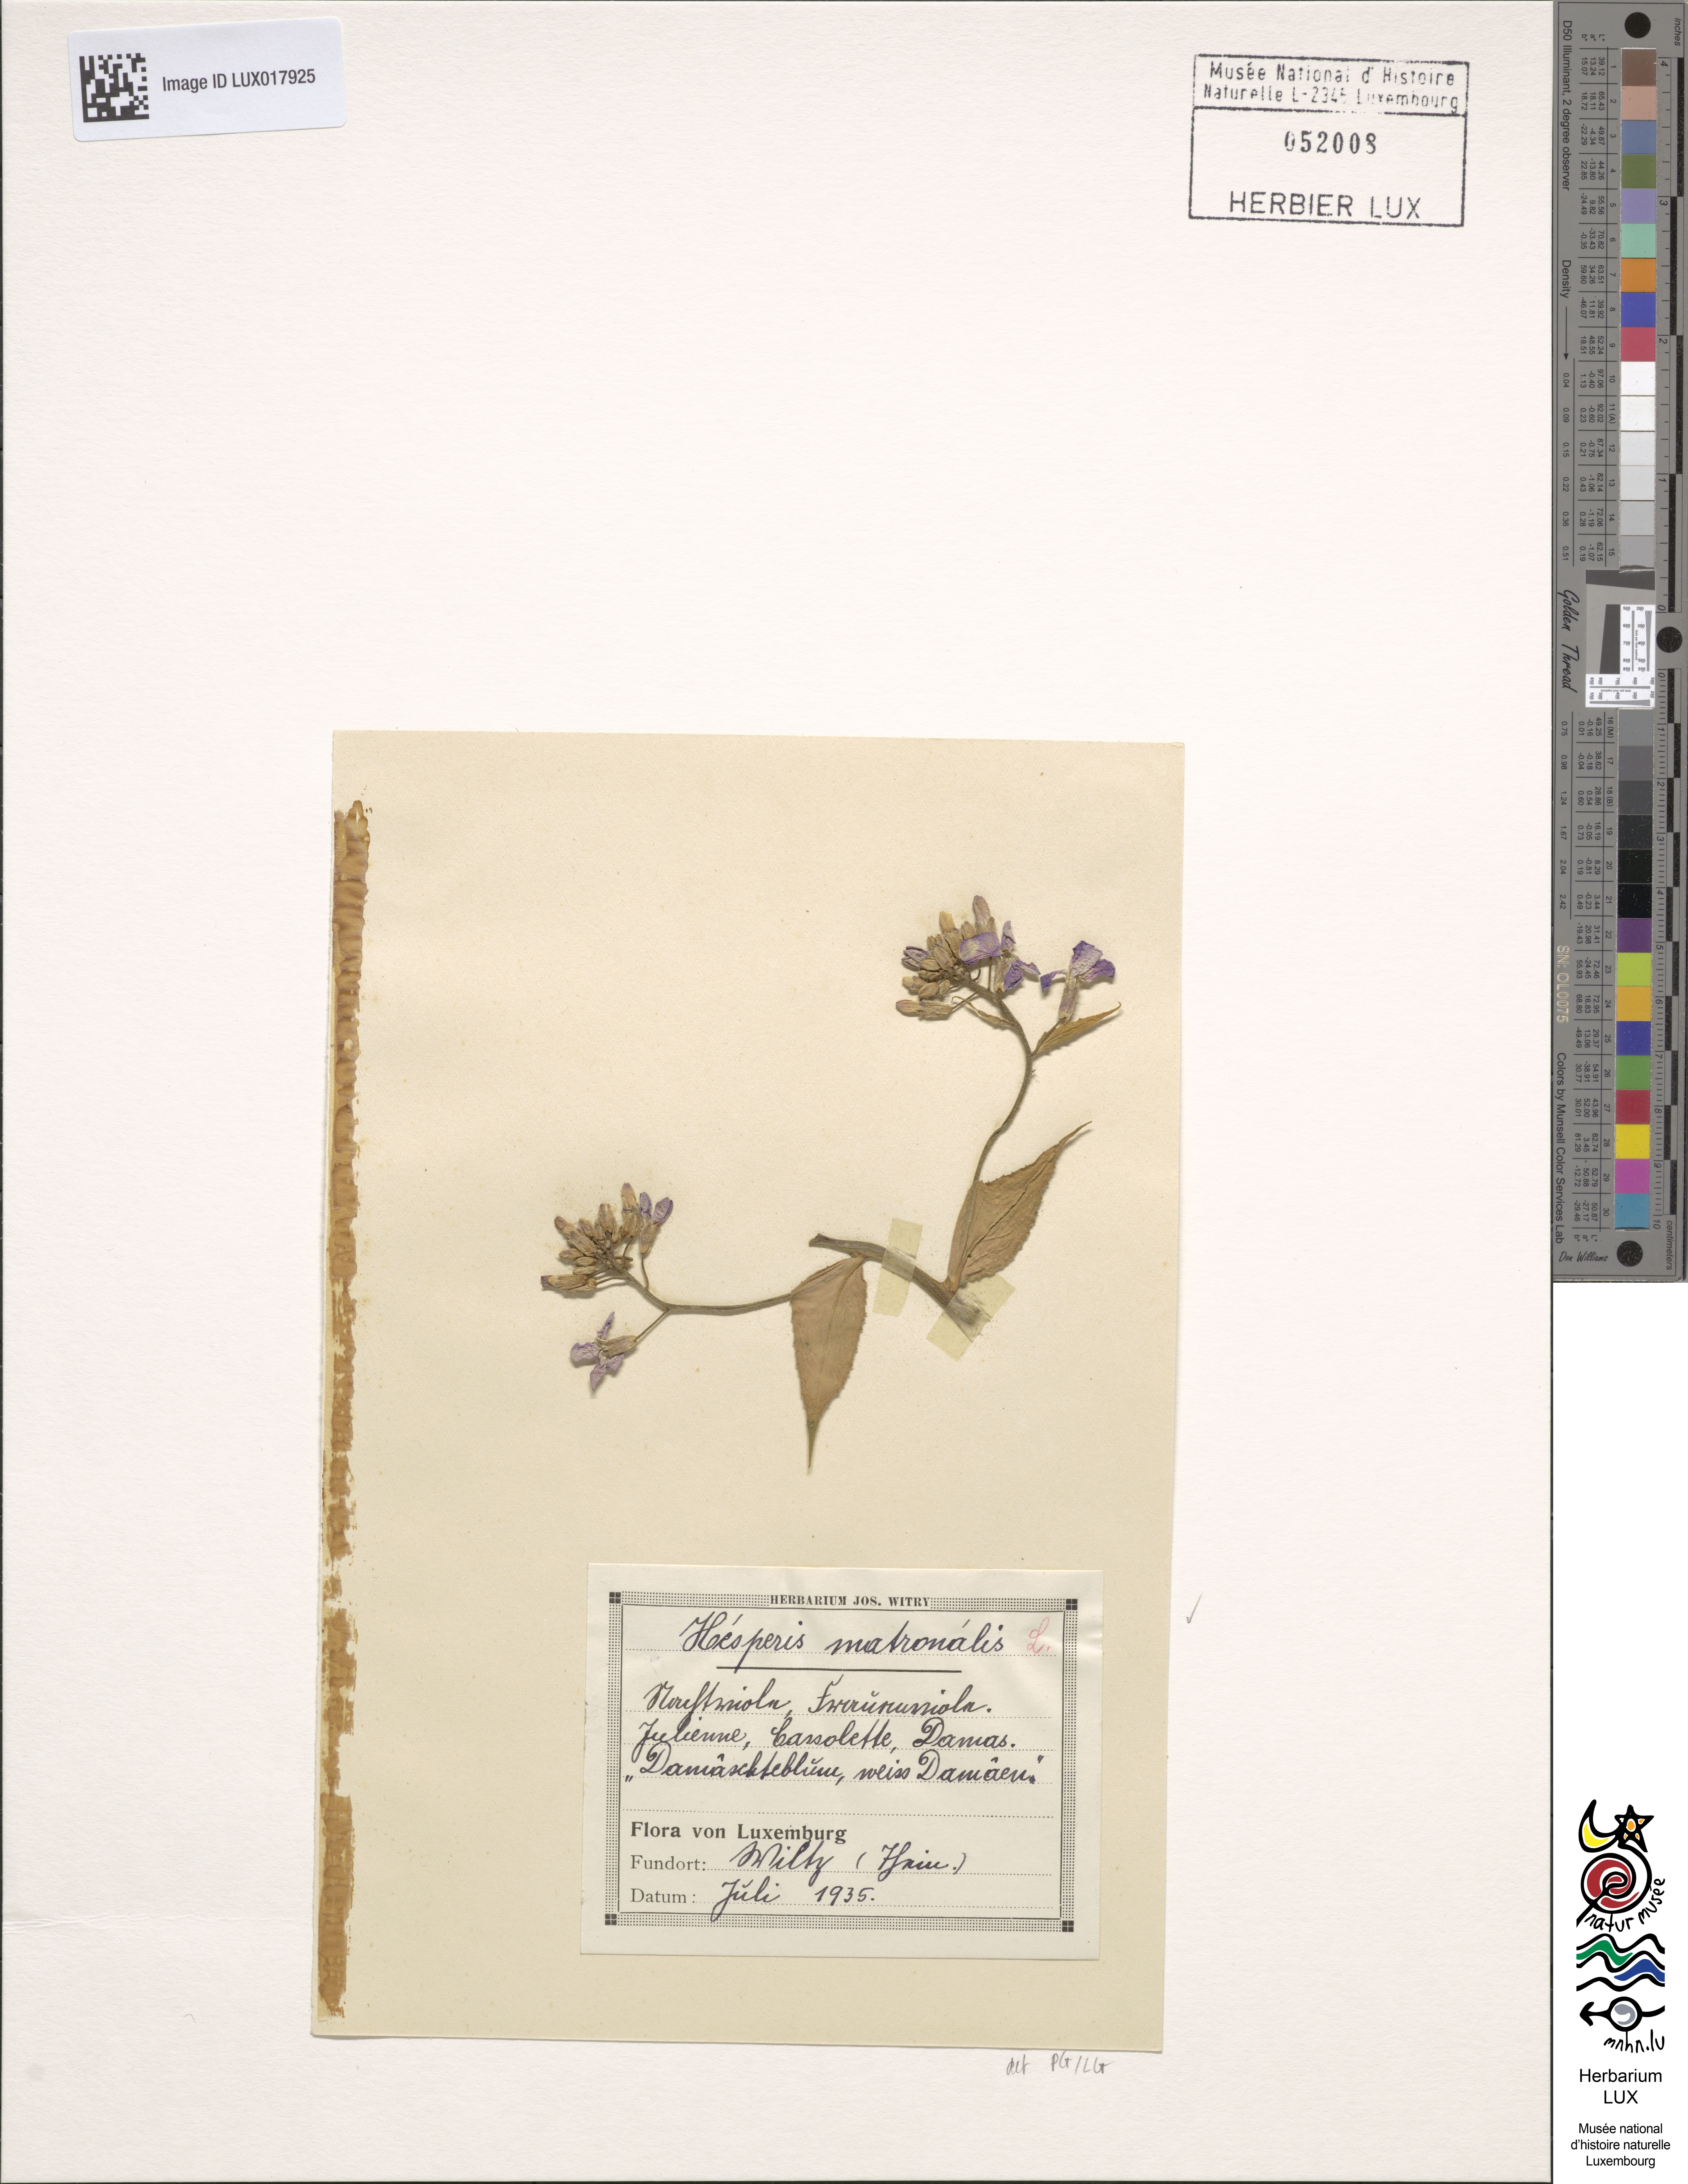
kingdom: Plantae
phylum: Tracheophyta
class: Magnoliopsida
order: Brassicales
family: Brassicaceae
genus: Hesperis
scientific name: Hesperis matronalis
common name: Dame's-violet
